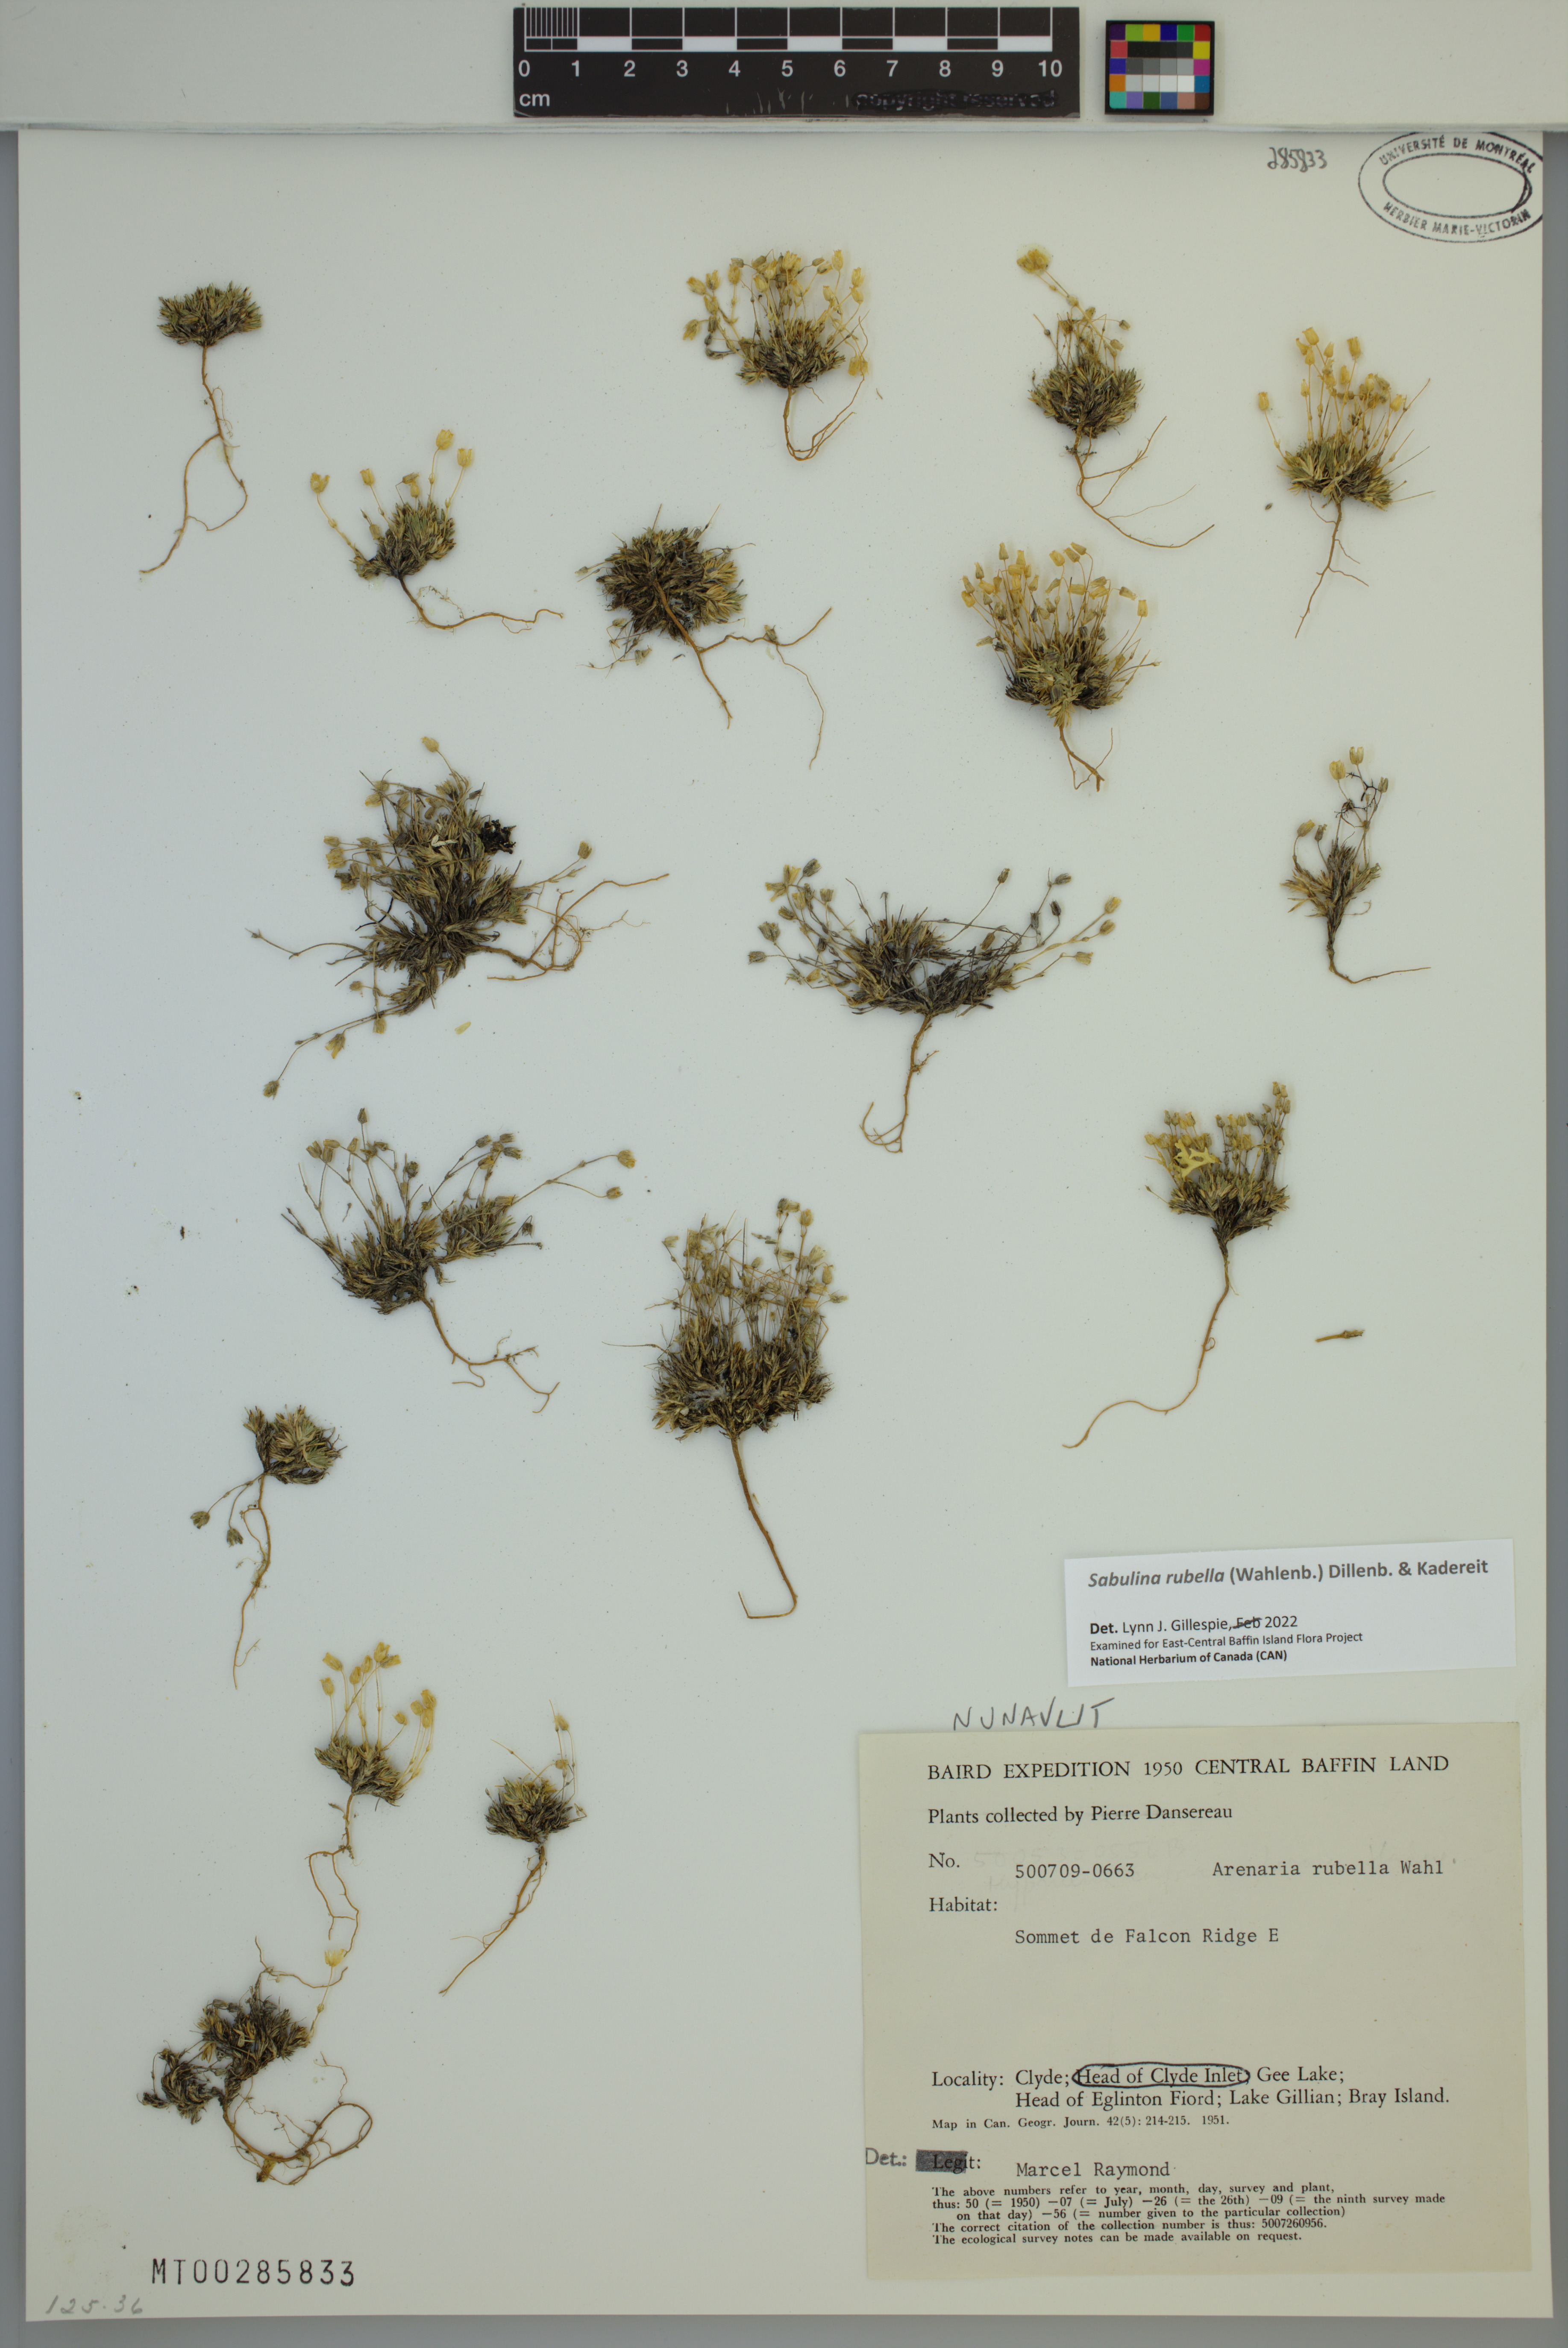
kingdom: Plantae
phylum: Tracheophyta
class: Magnoliopsida
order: Caryophyllales
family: Caryophyllaceae
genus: Sabulina
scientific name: Sabulina rubella
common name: Beautiful sandwort
